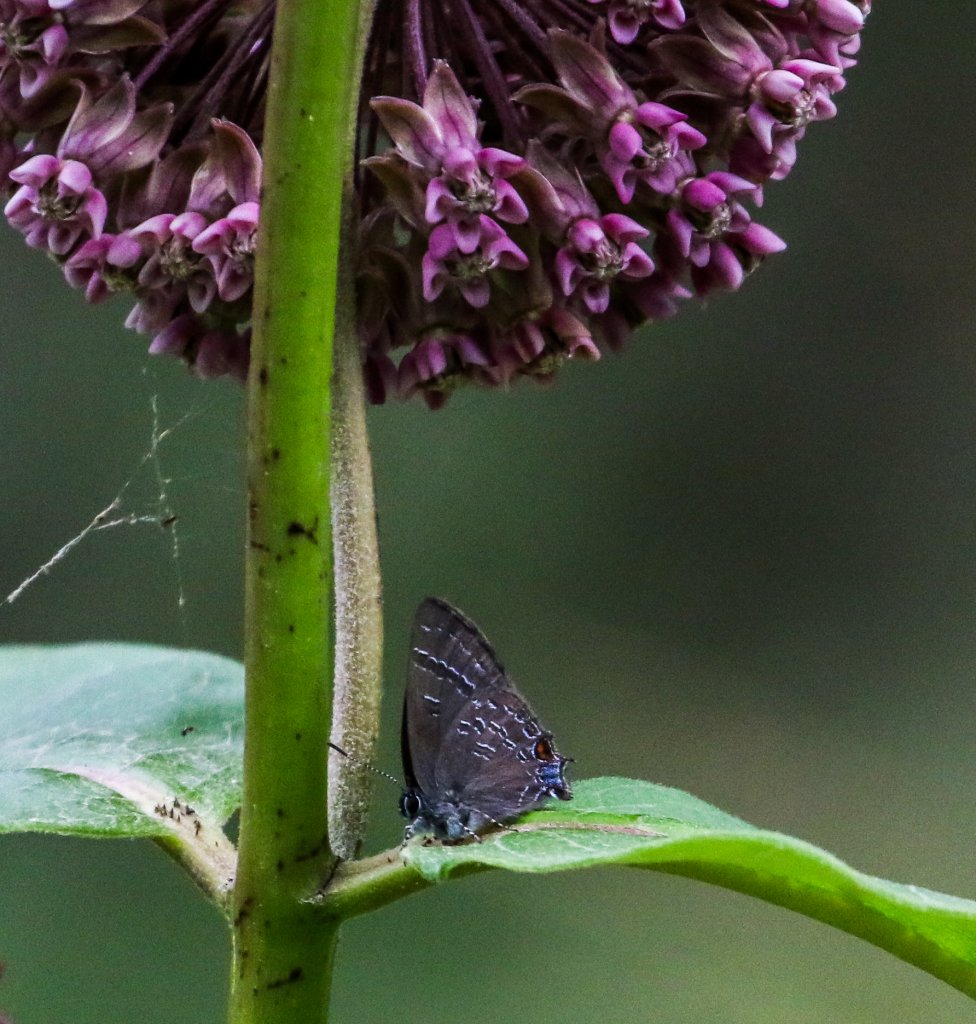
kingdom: Animalia
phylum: Arthropoda
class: Insecta
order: Lepidoptera
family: Lycaenidae
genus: Satyrium
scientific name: Satyrium calanus
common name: Banded Hairstreak
